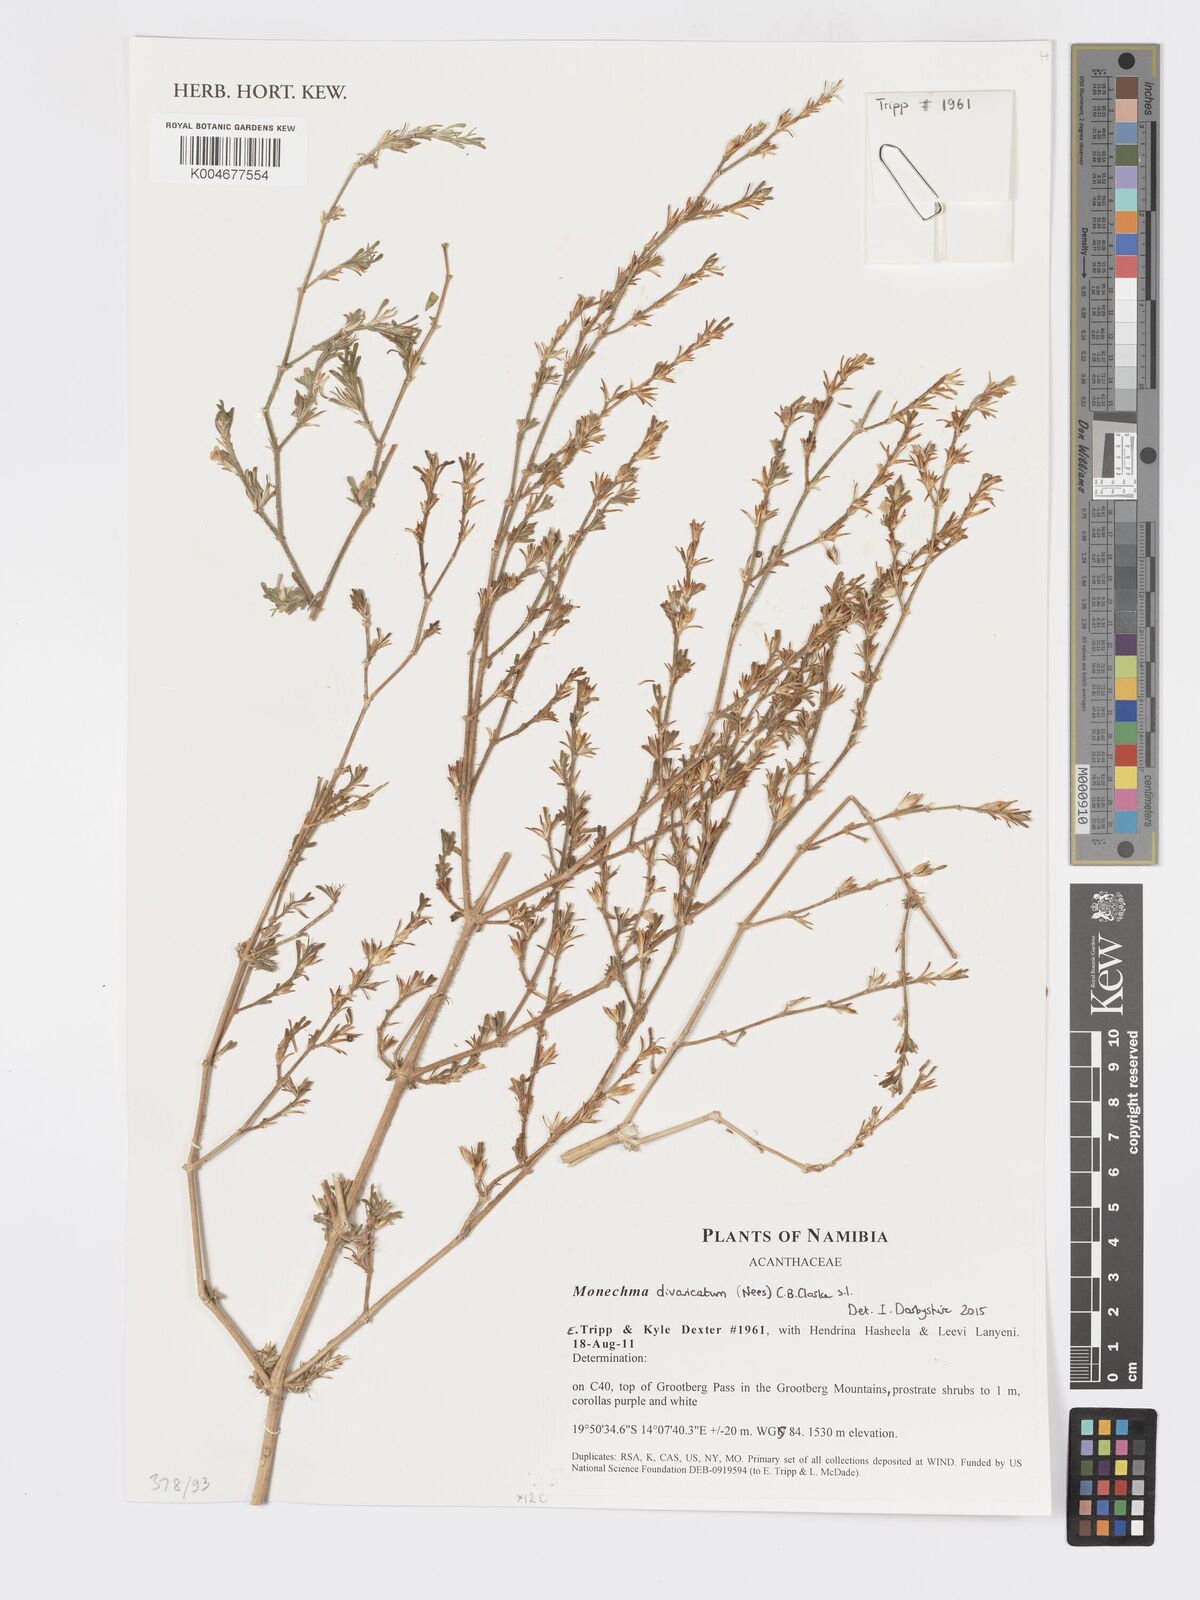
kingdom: Plantae
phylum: Tracheophyta
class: Magnoliopsida
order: Lamiales
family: Acanthaceae
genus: Pogonospermum
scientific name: Pogonospermum
